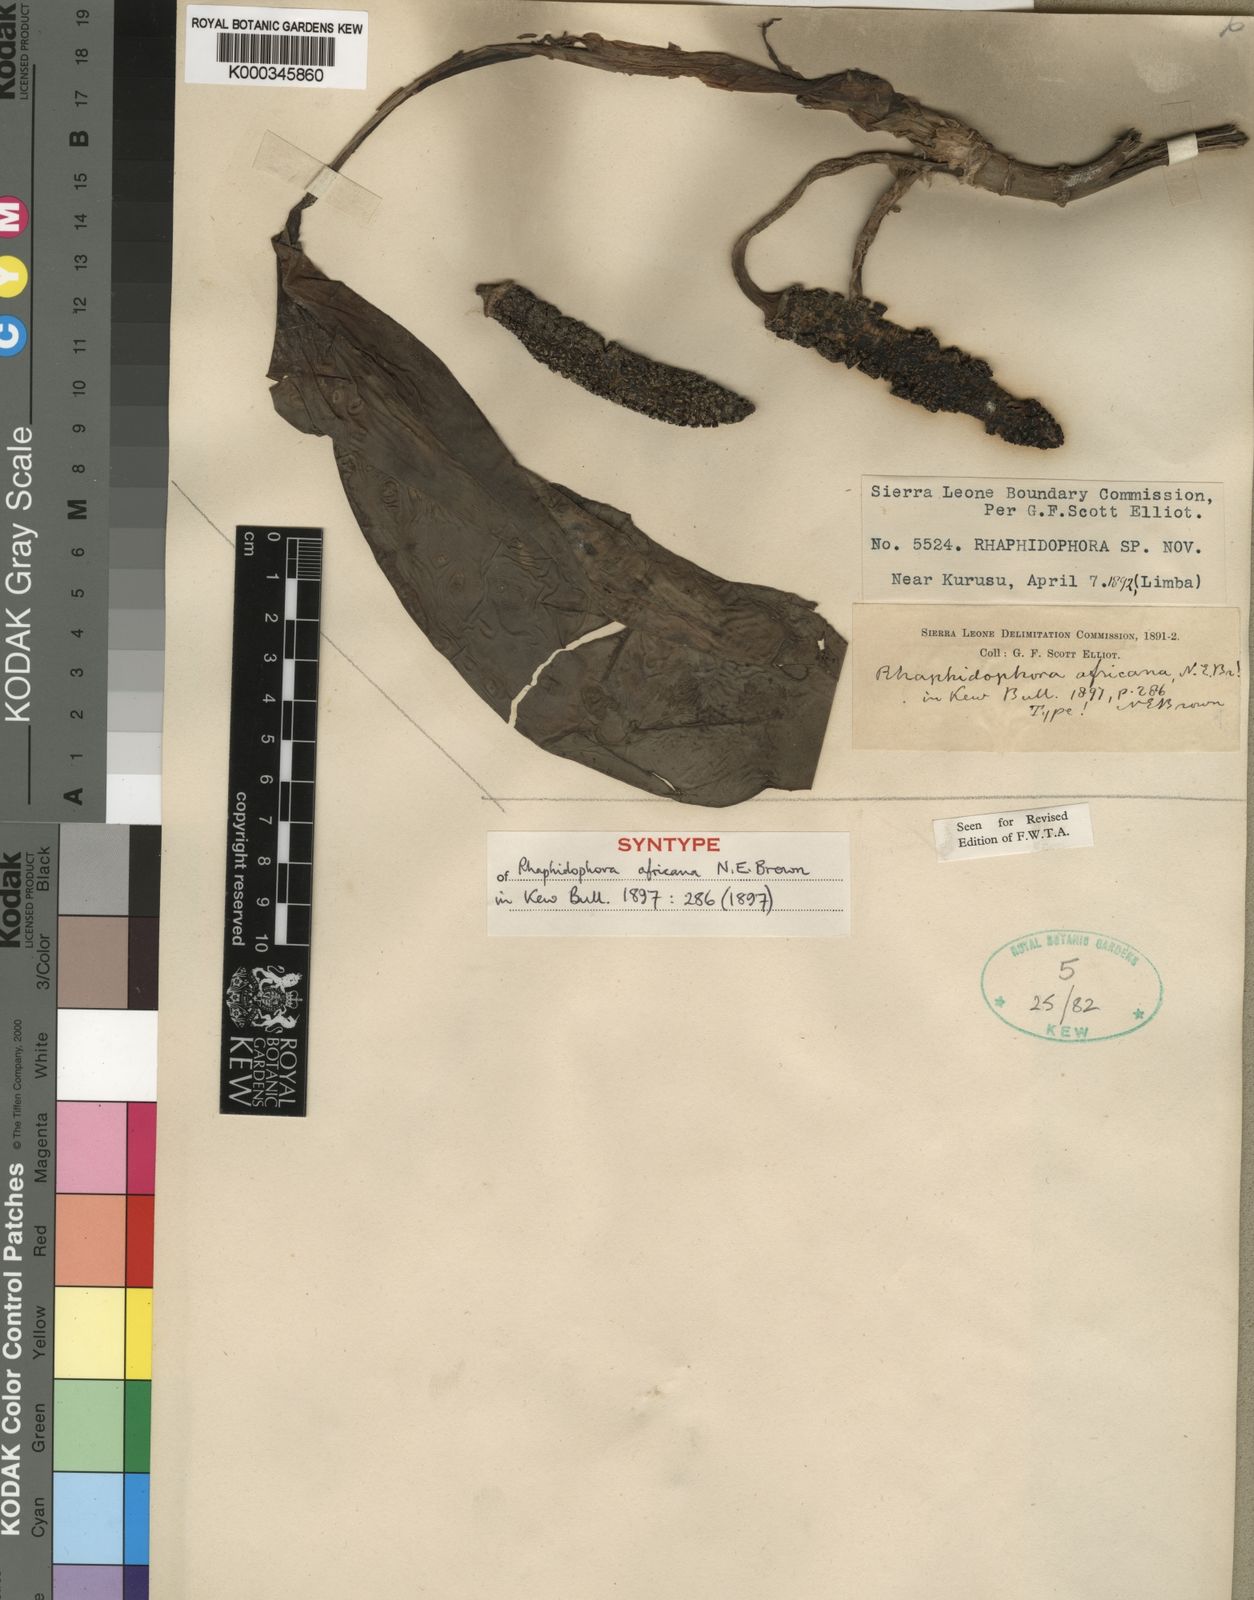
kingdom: Plantae
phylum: Tracheophyta
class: Liliopsida
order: Alismatales
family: Araceae
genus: Rhaphidophora
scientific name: Rhaphidophora africana
